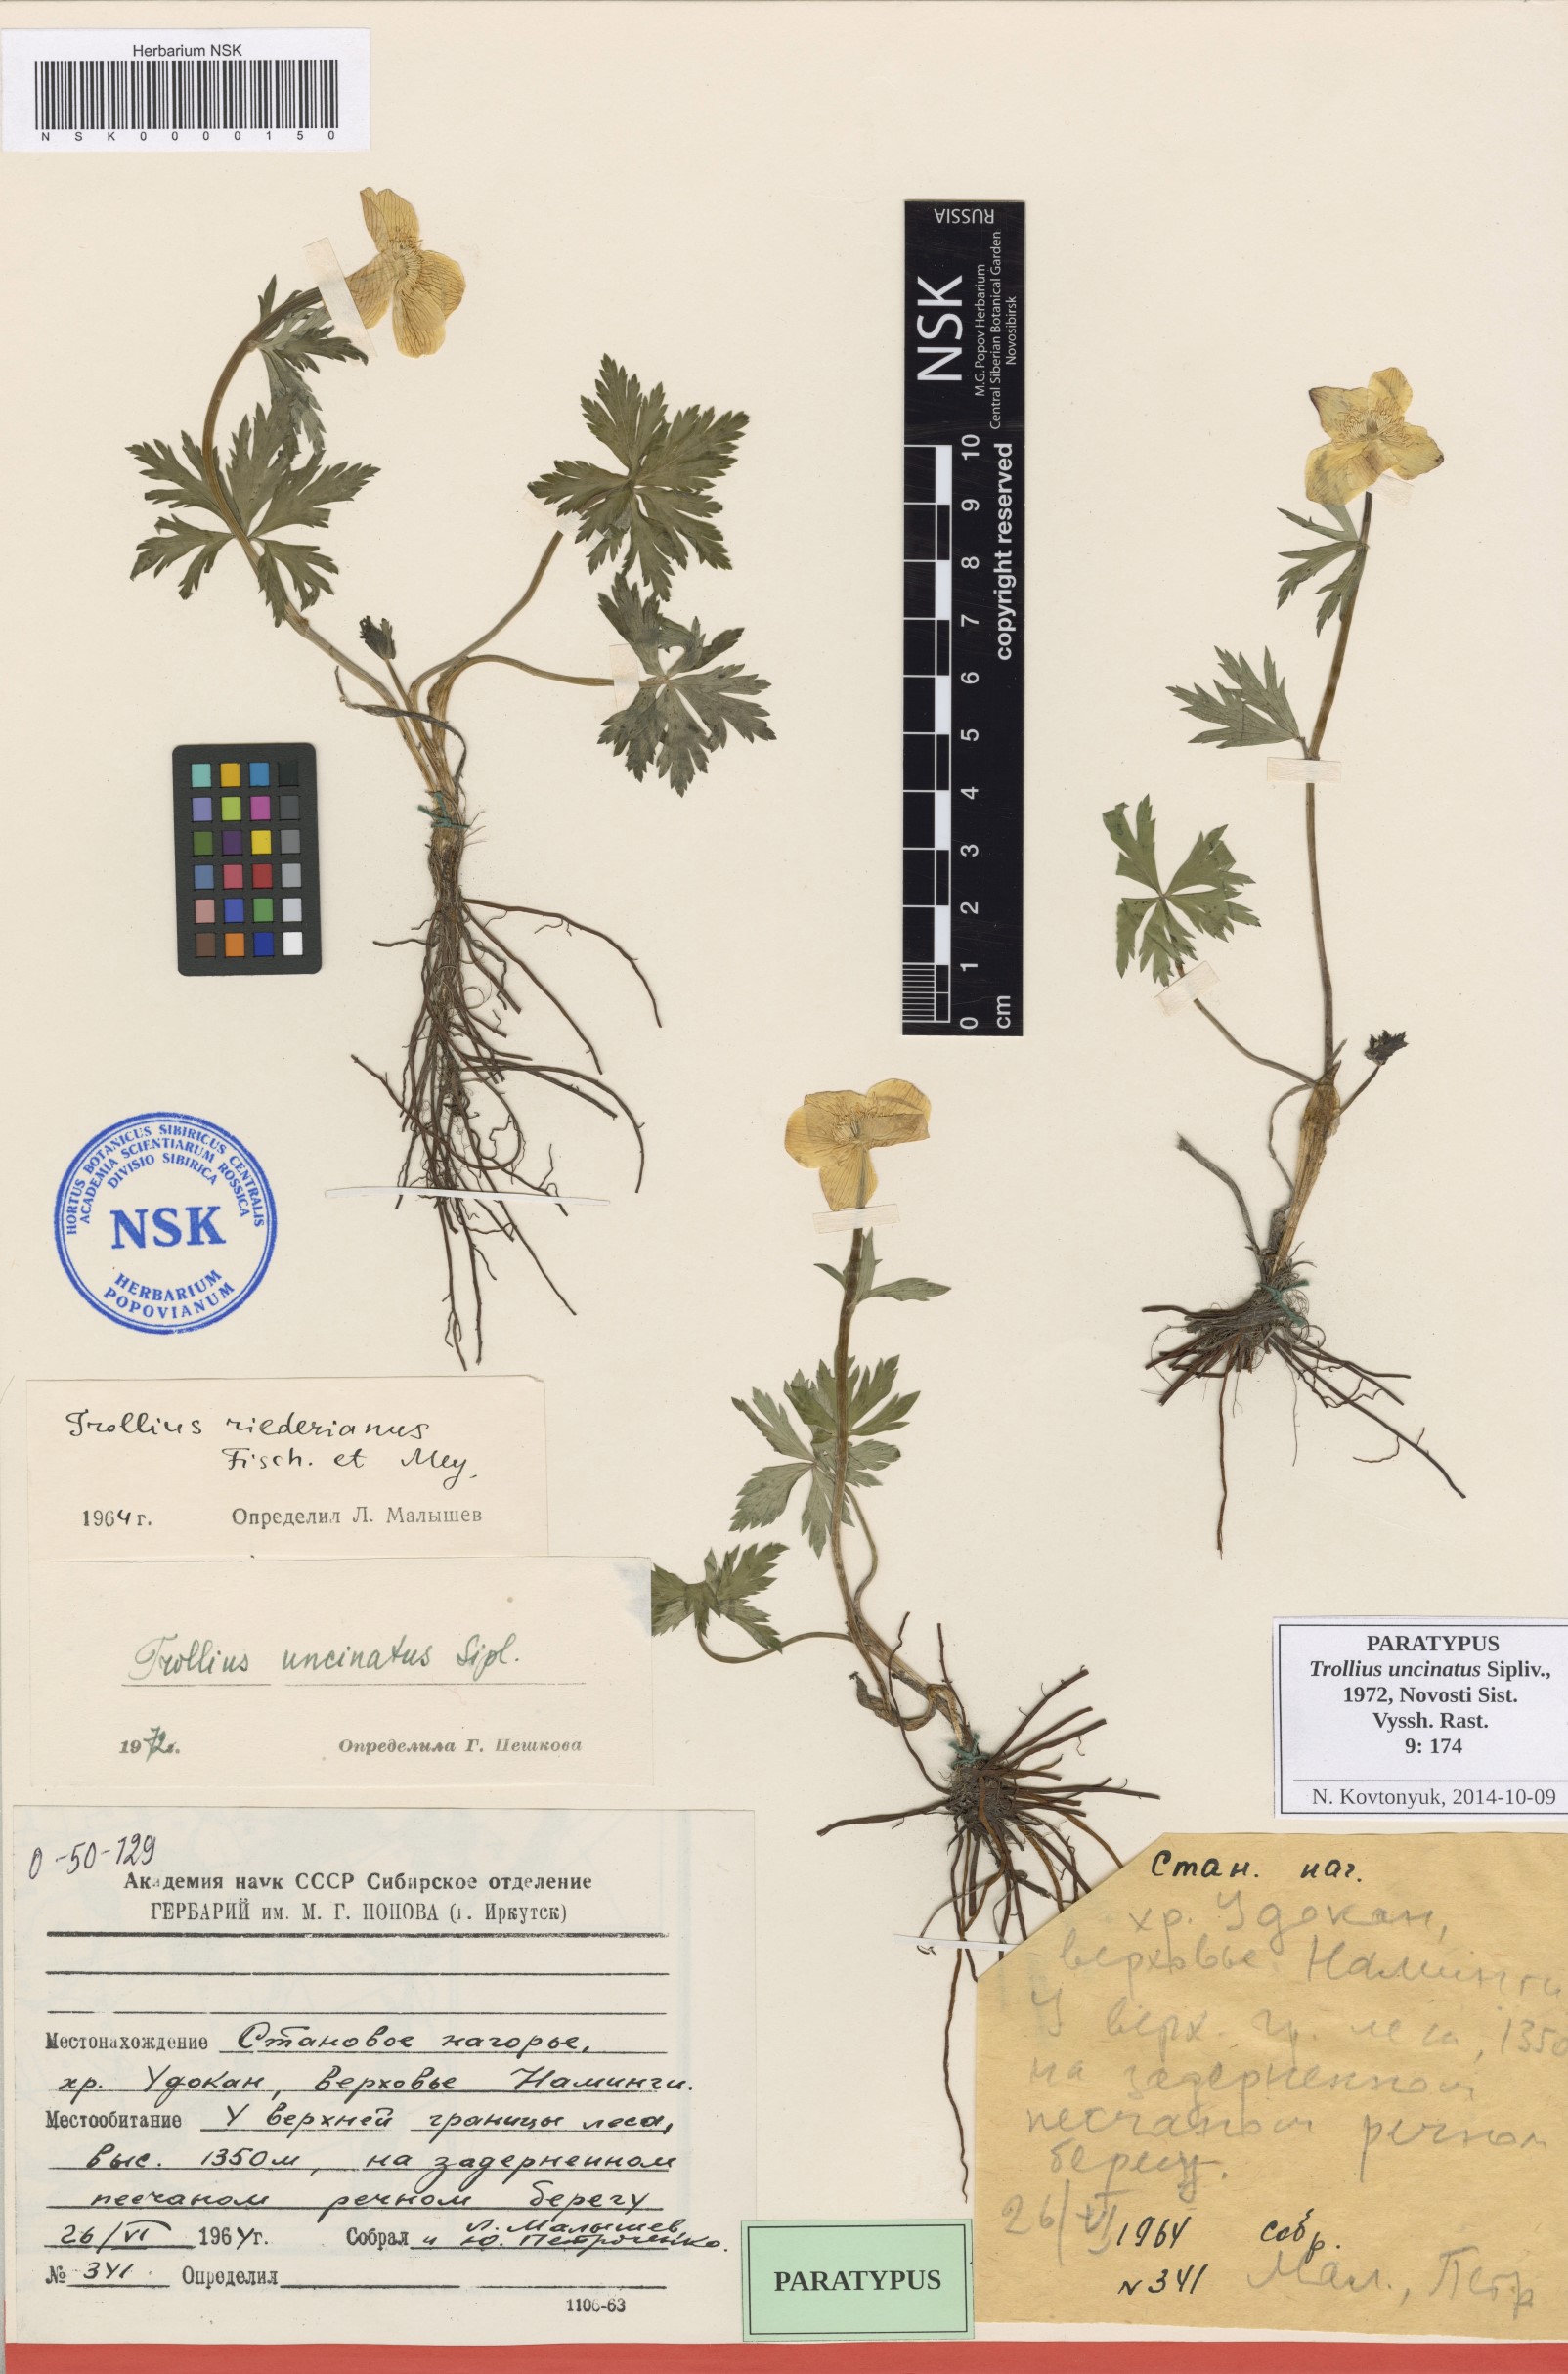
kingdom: Plantae
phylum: Tracheophyta
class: Magnoliopsida
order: Ranunculales
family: Ranunculaceae
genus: Trollius
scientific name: Trollius riederianus
